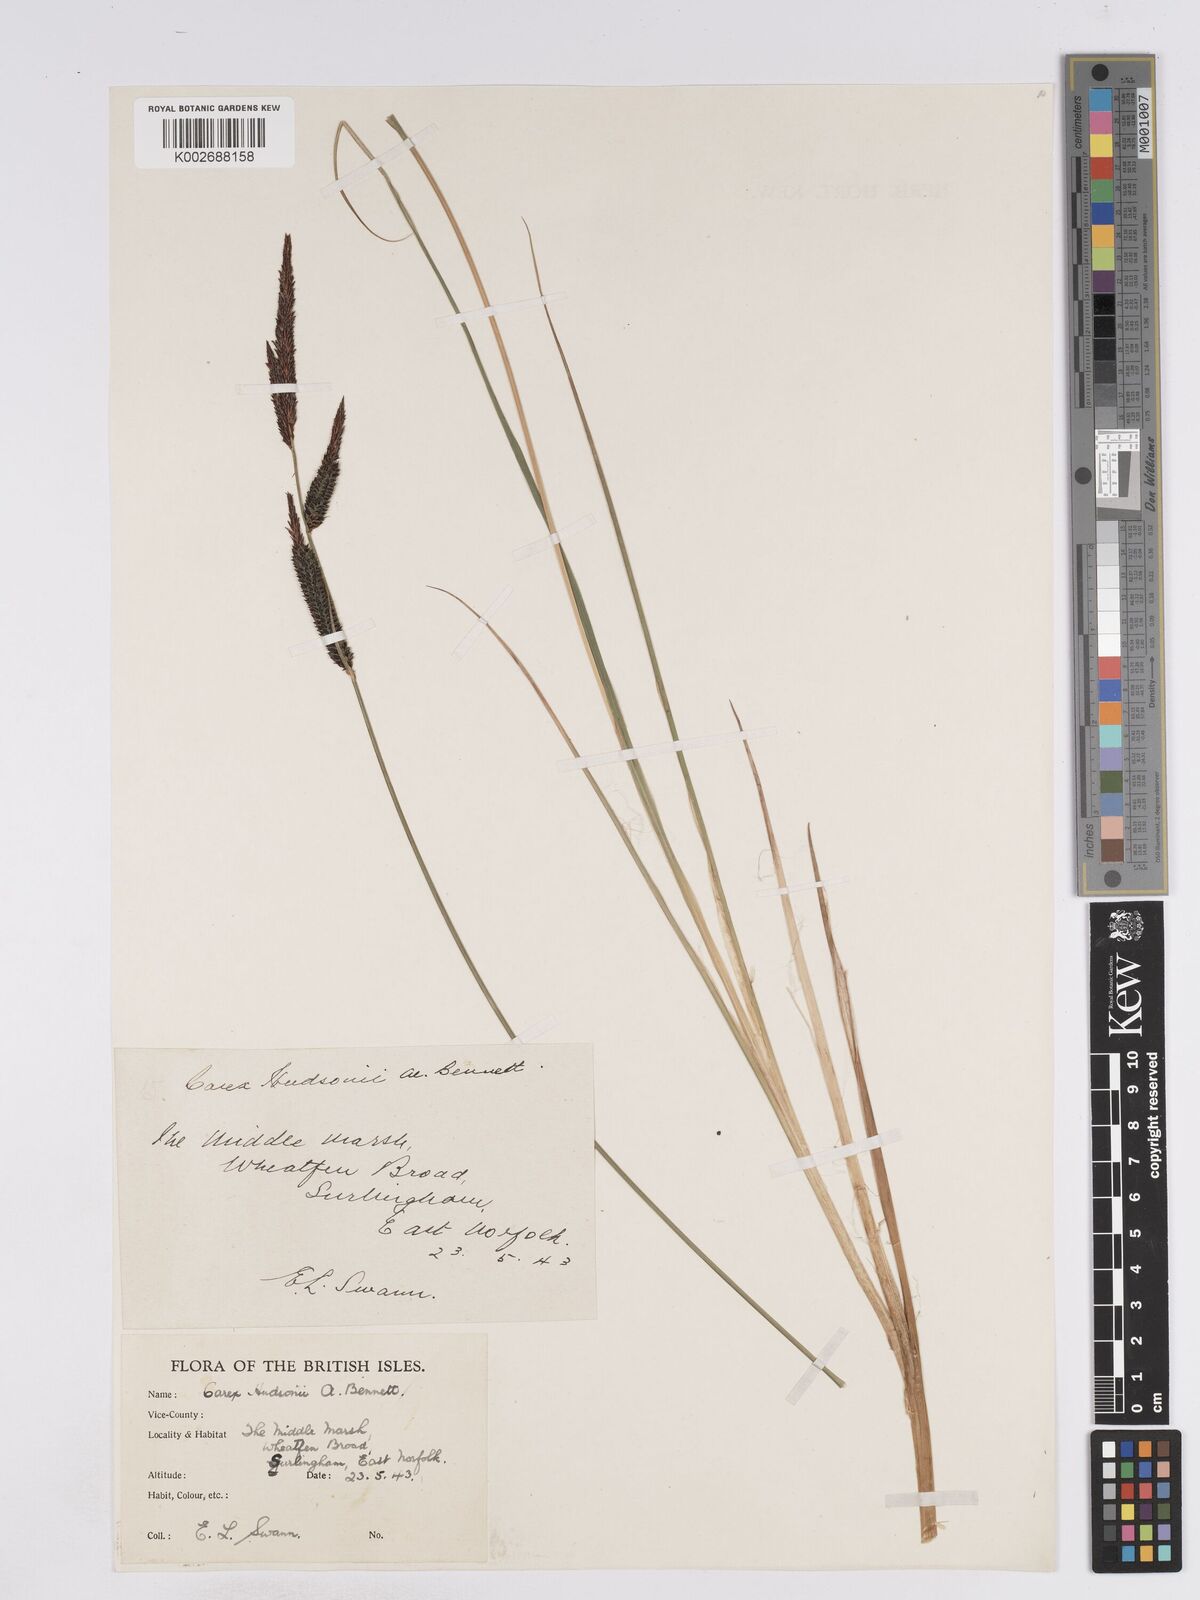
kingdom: Plantae
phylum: Tracheophyta
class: Liliopsida
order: Poales
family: Cyperaceae
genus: Carex
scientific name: Carex elata
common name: Tufted sedge
